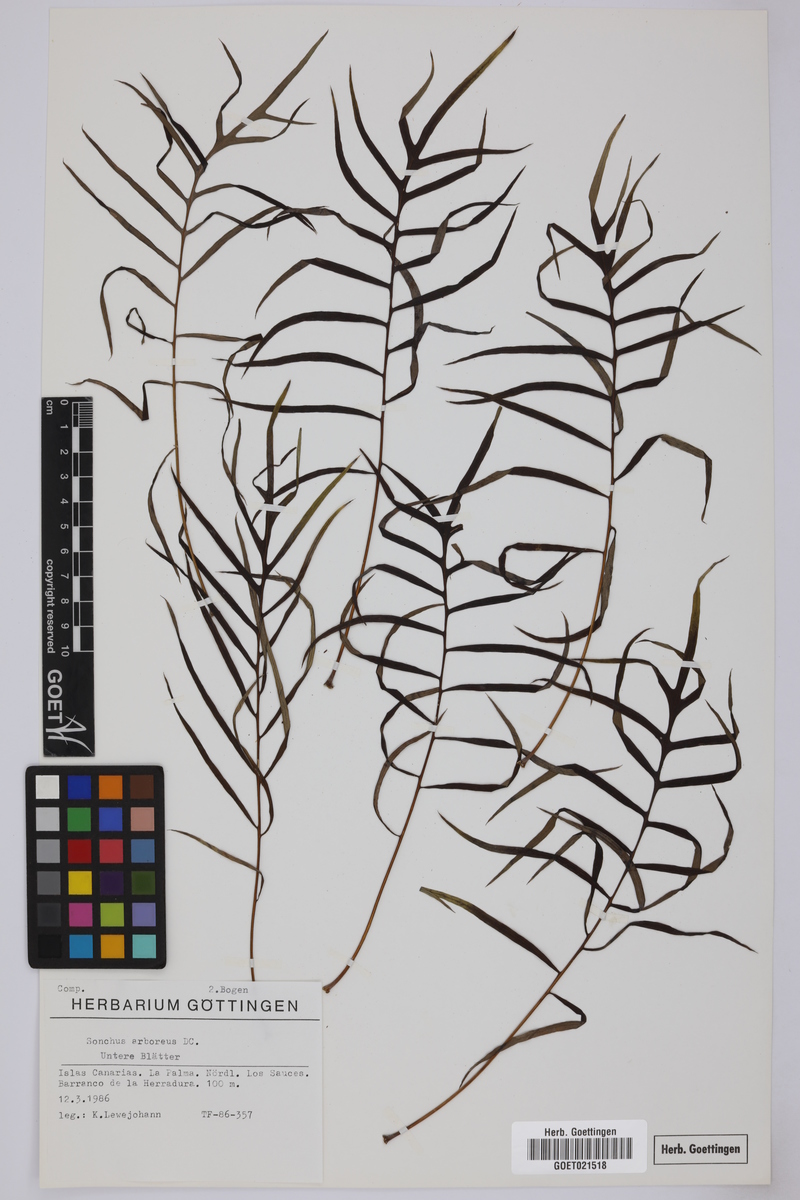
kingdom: Plantae
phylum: Tracheophyta
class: Magnoliopsida
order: Asterales
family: Asteraceae
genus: Sonchus
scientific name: Sonchus arboreus
